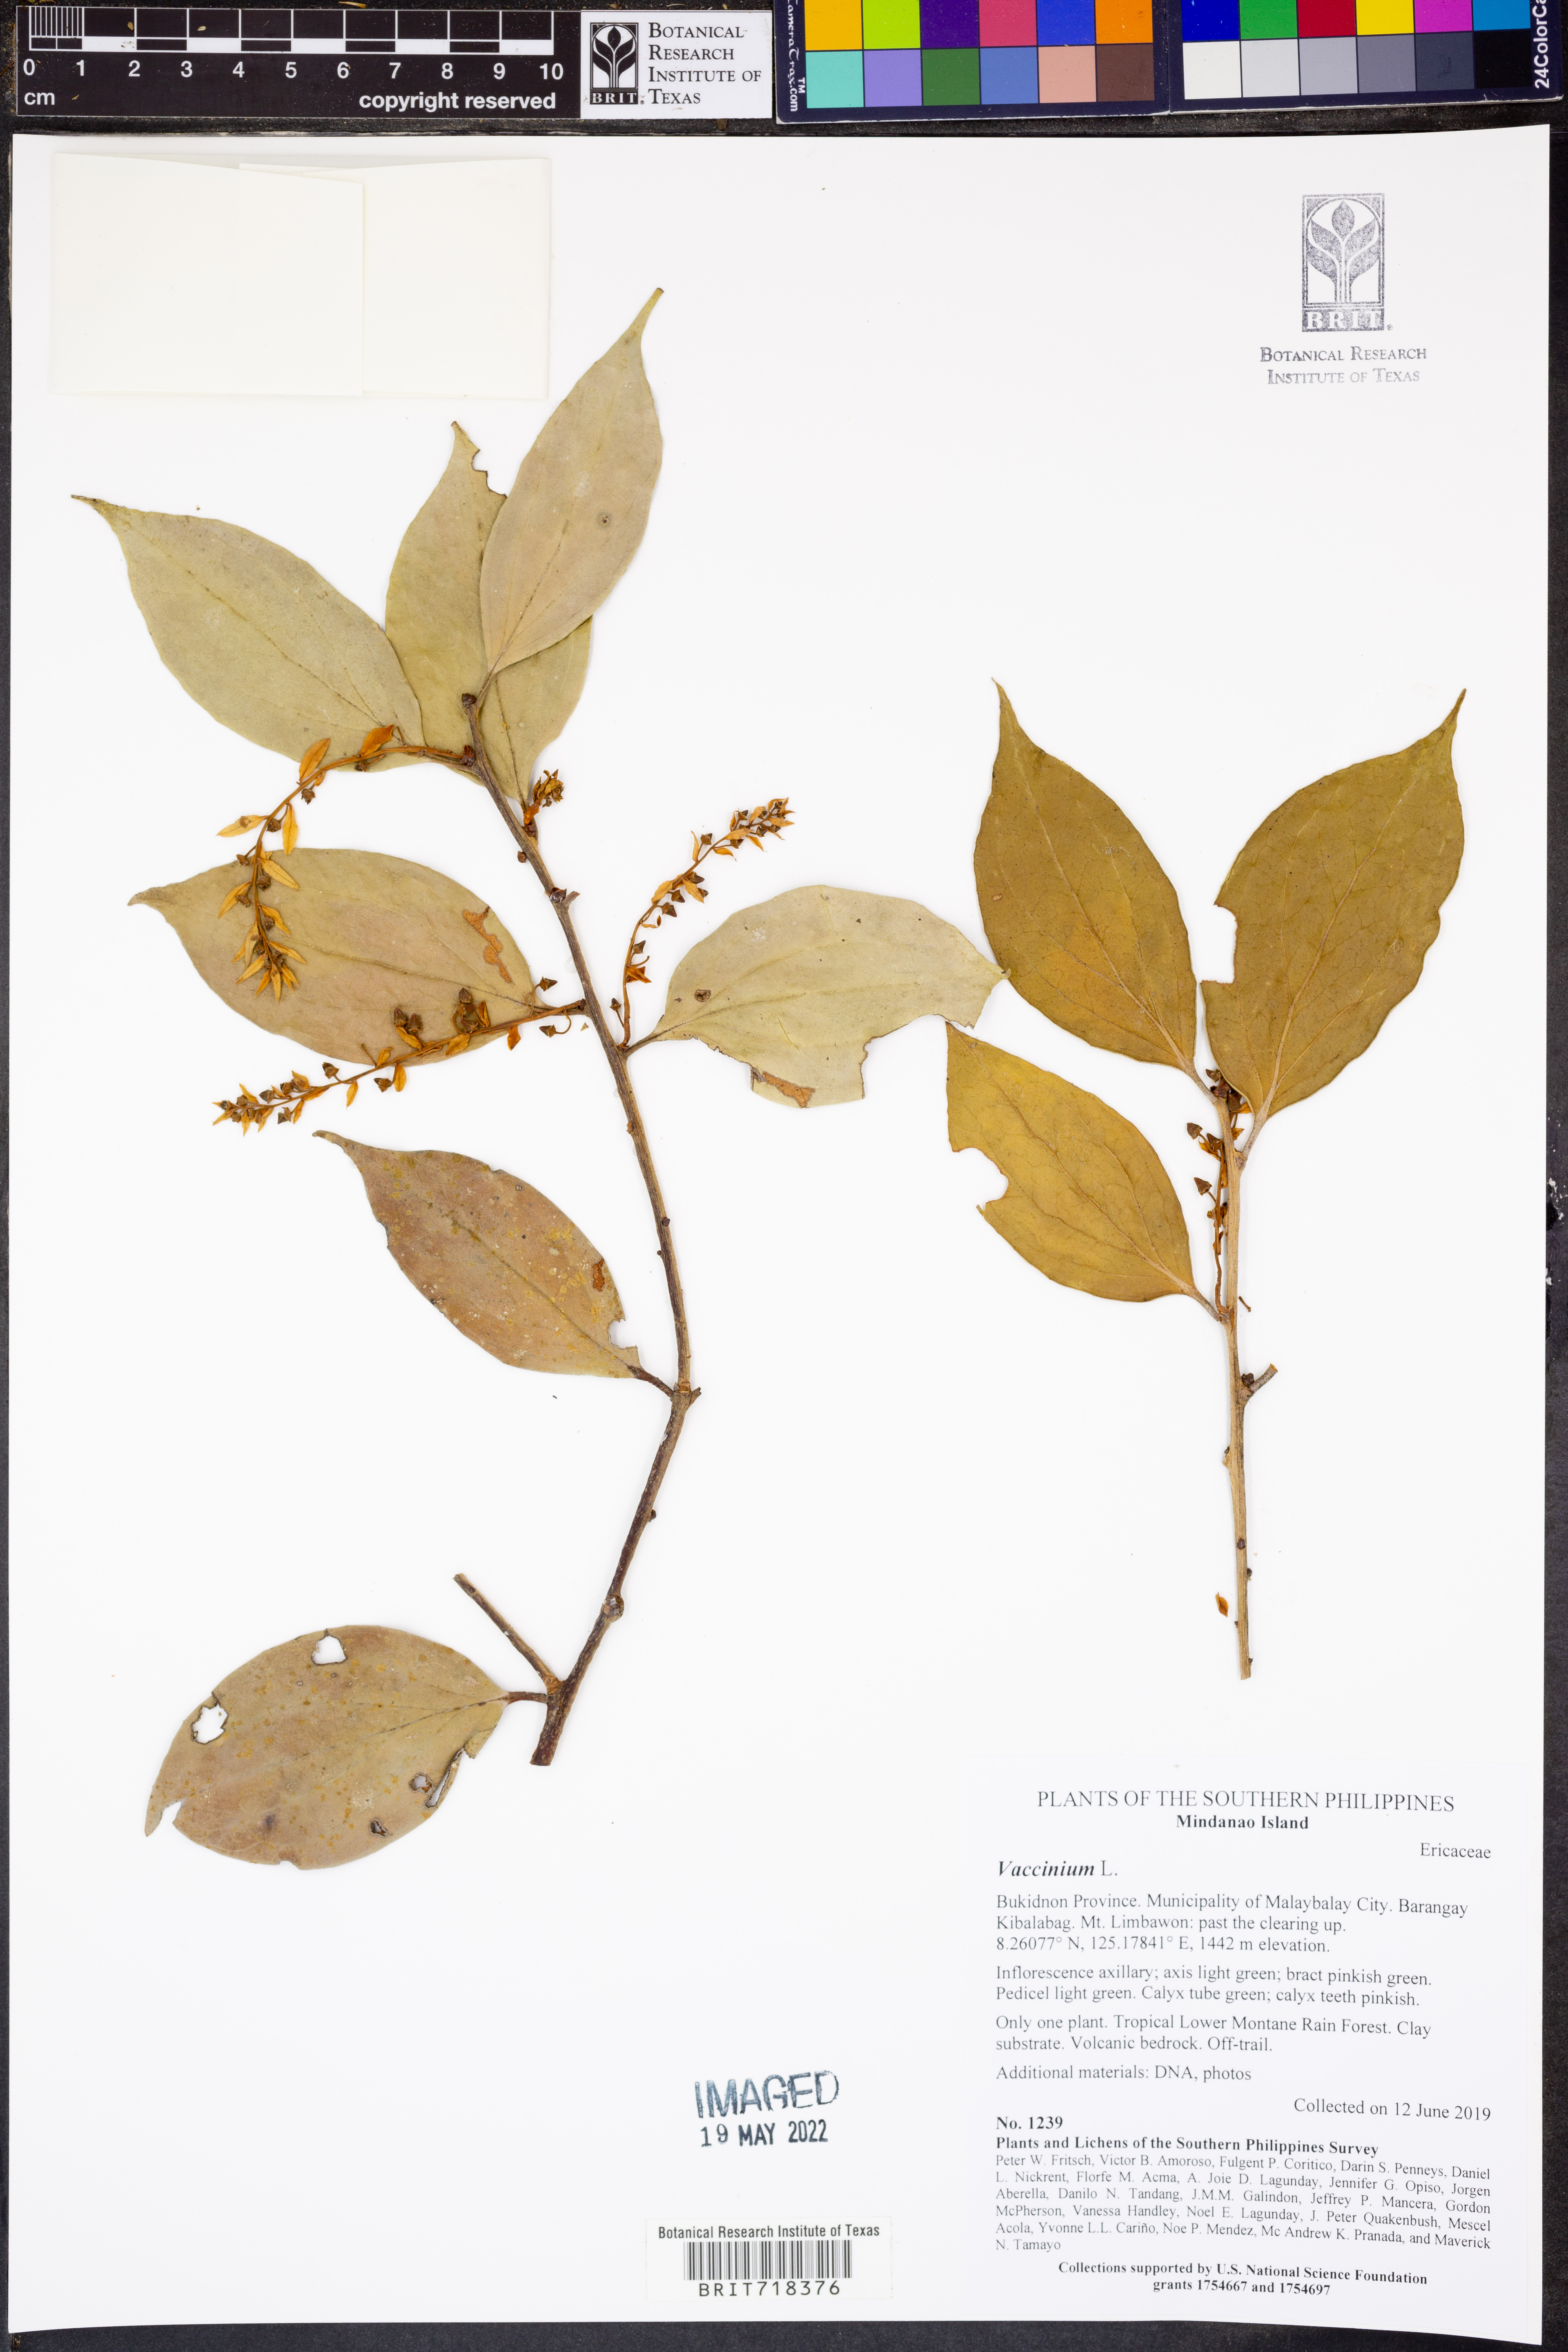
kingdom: Plantae
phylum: Tracheophyta
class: Magnoliopsida
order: Ericales
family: Ericaceae
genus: Vaccinium
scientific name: Vaccinium
